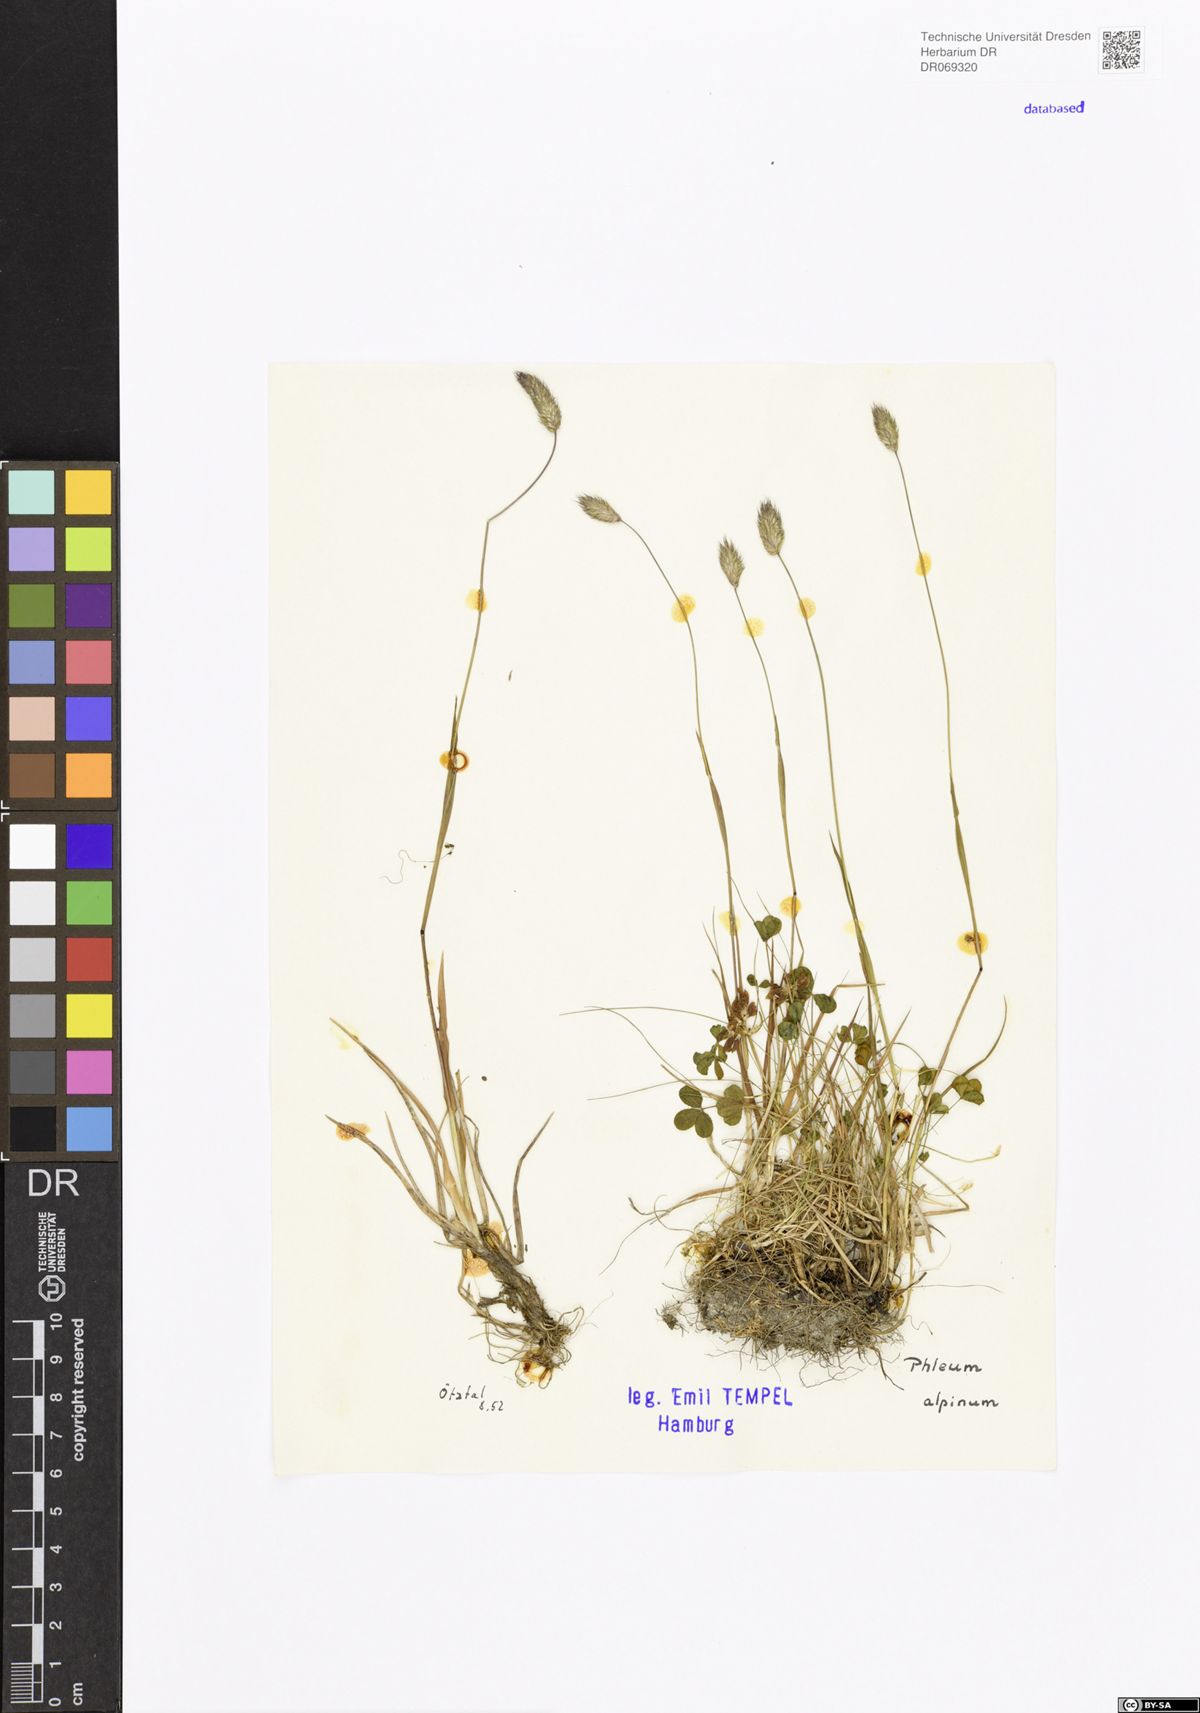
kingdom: Plantae
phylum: Tracheophyta
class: Liliopsida
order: Poales
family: Poaceae
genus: Phleum
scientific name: Phleum alpinum
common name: Alpine cat's-tail
